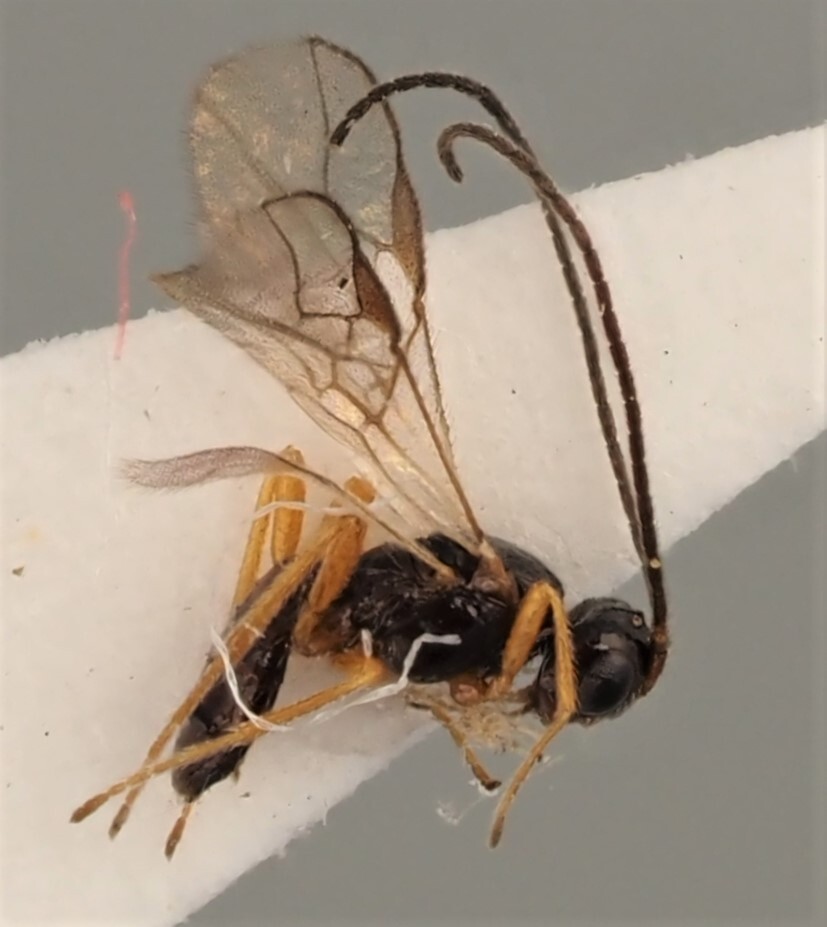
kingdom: Animalia
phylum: Arthropoda
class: Insecta
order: Hymenoptera
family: Braconidae
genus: Opius
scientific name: Opius pendulus
